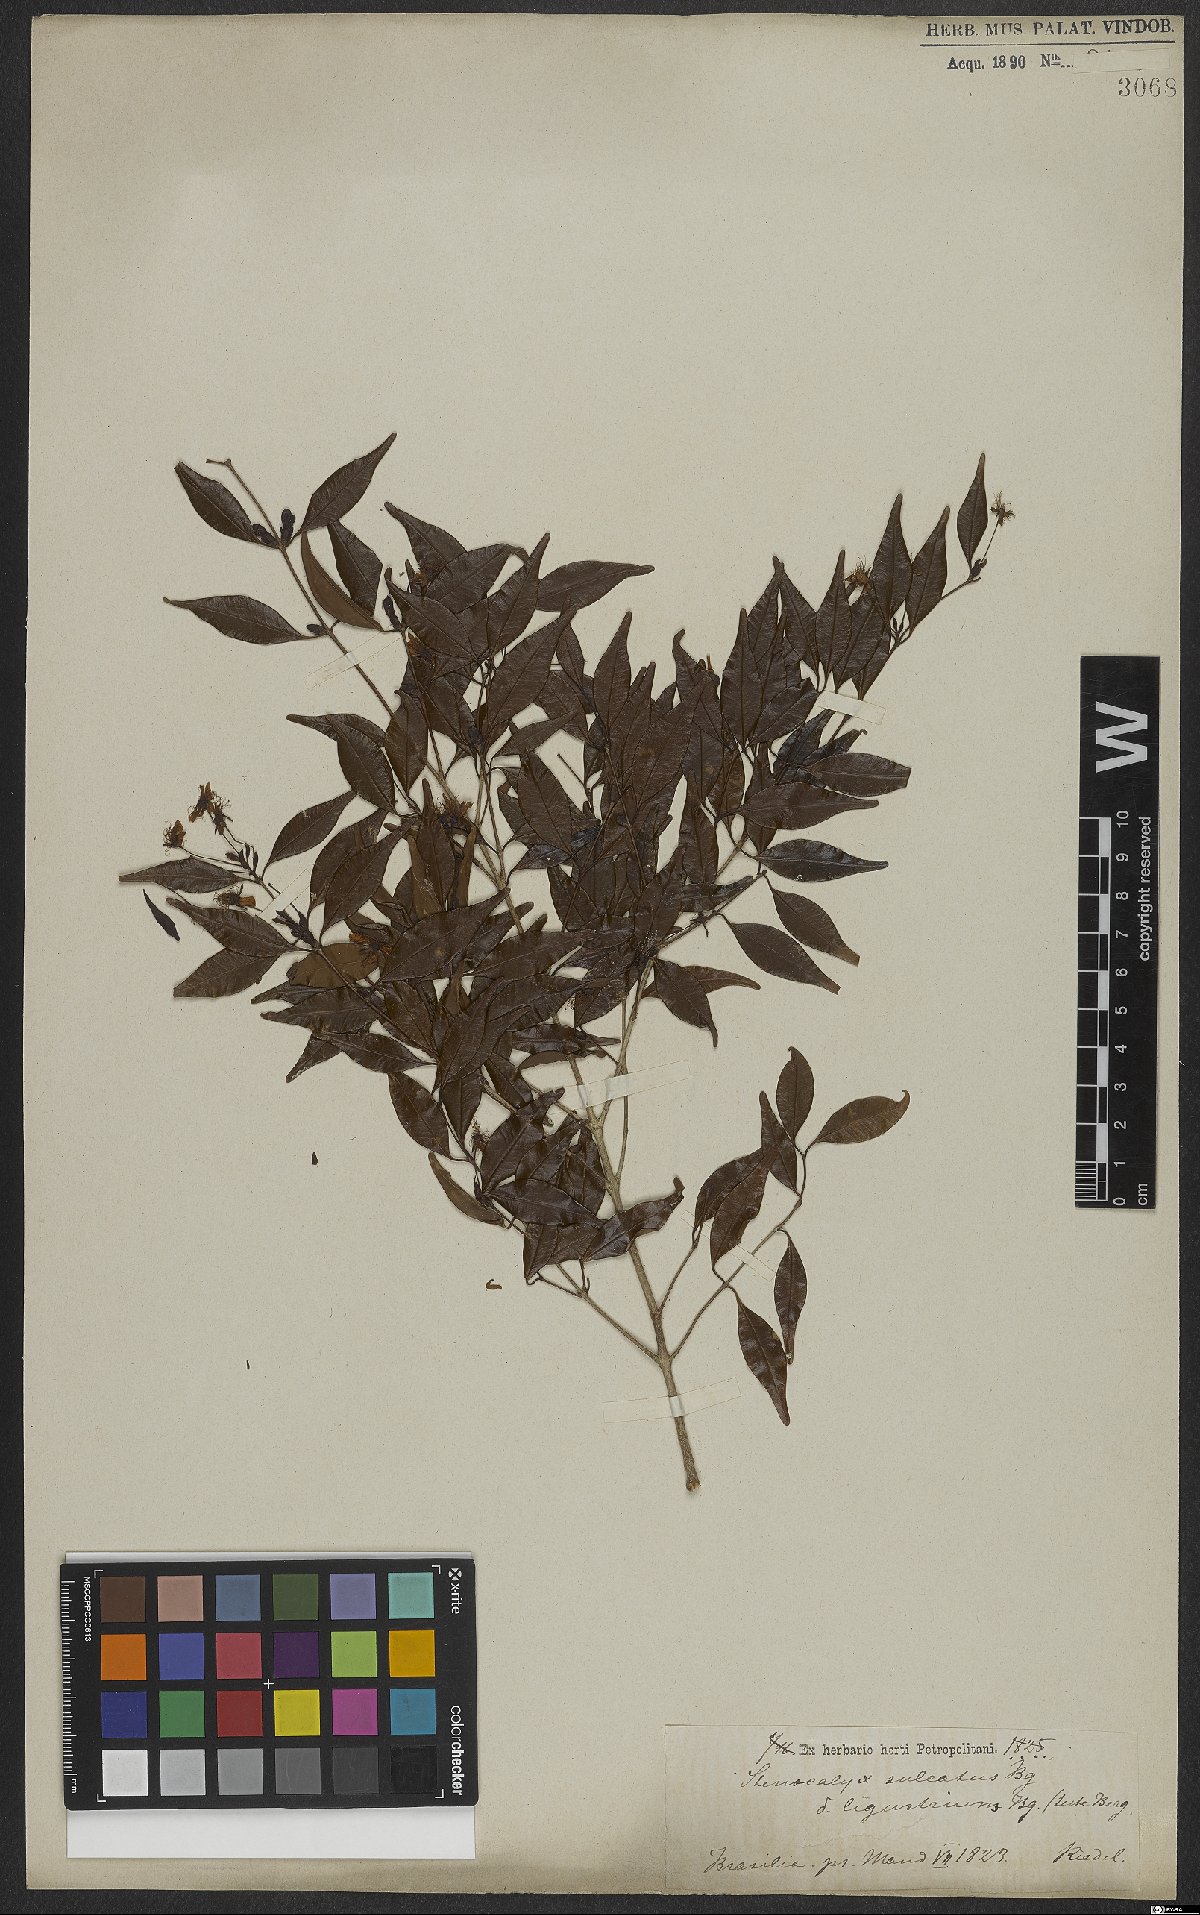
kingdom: Plantae
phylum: Tracheophyta
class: Magnoliopsida
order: Myrtales
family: Myrtaceae
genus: Eugenia
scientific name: Eugenia sulcata
